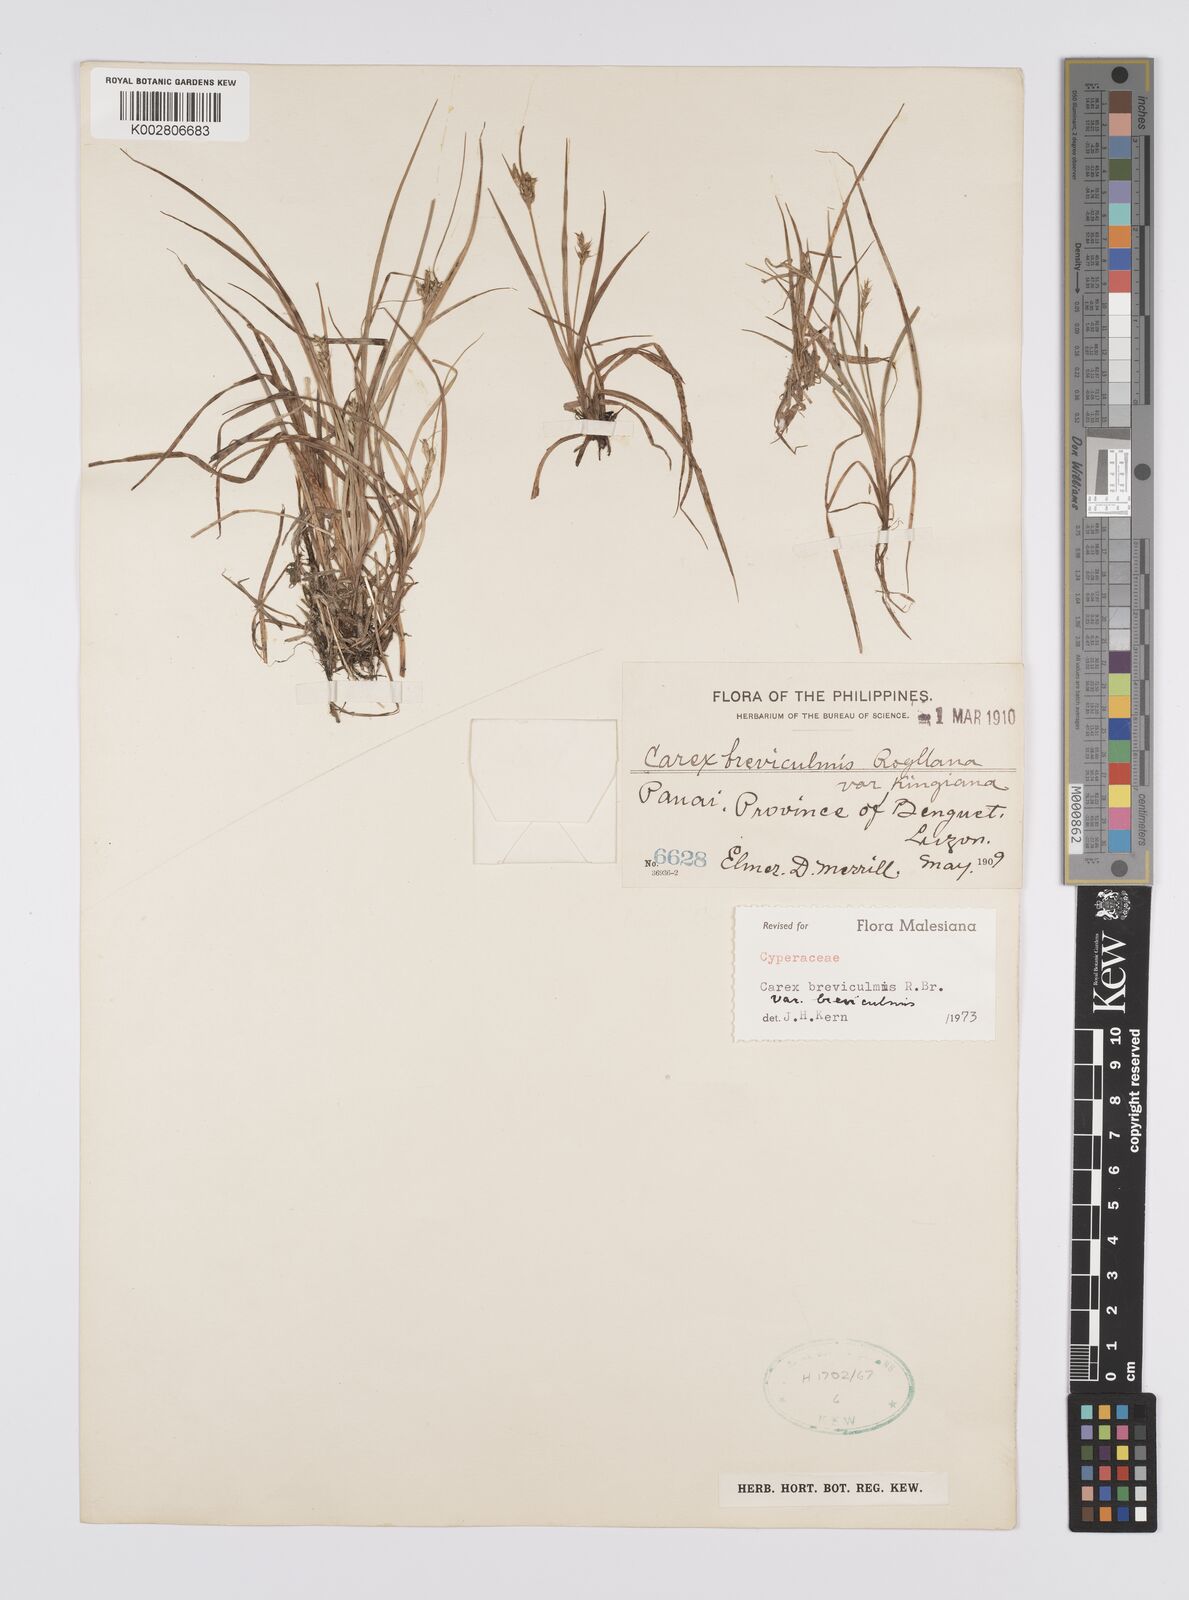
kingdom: Plantae
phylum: Tracheophyta
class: Liliopsida
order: Poales
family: Cyperaceae
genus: Carex
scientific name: Carex breviculmis
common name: Asian shortstem sedge
